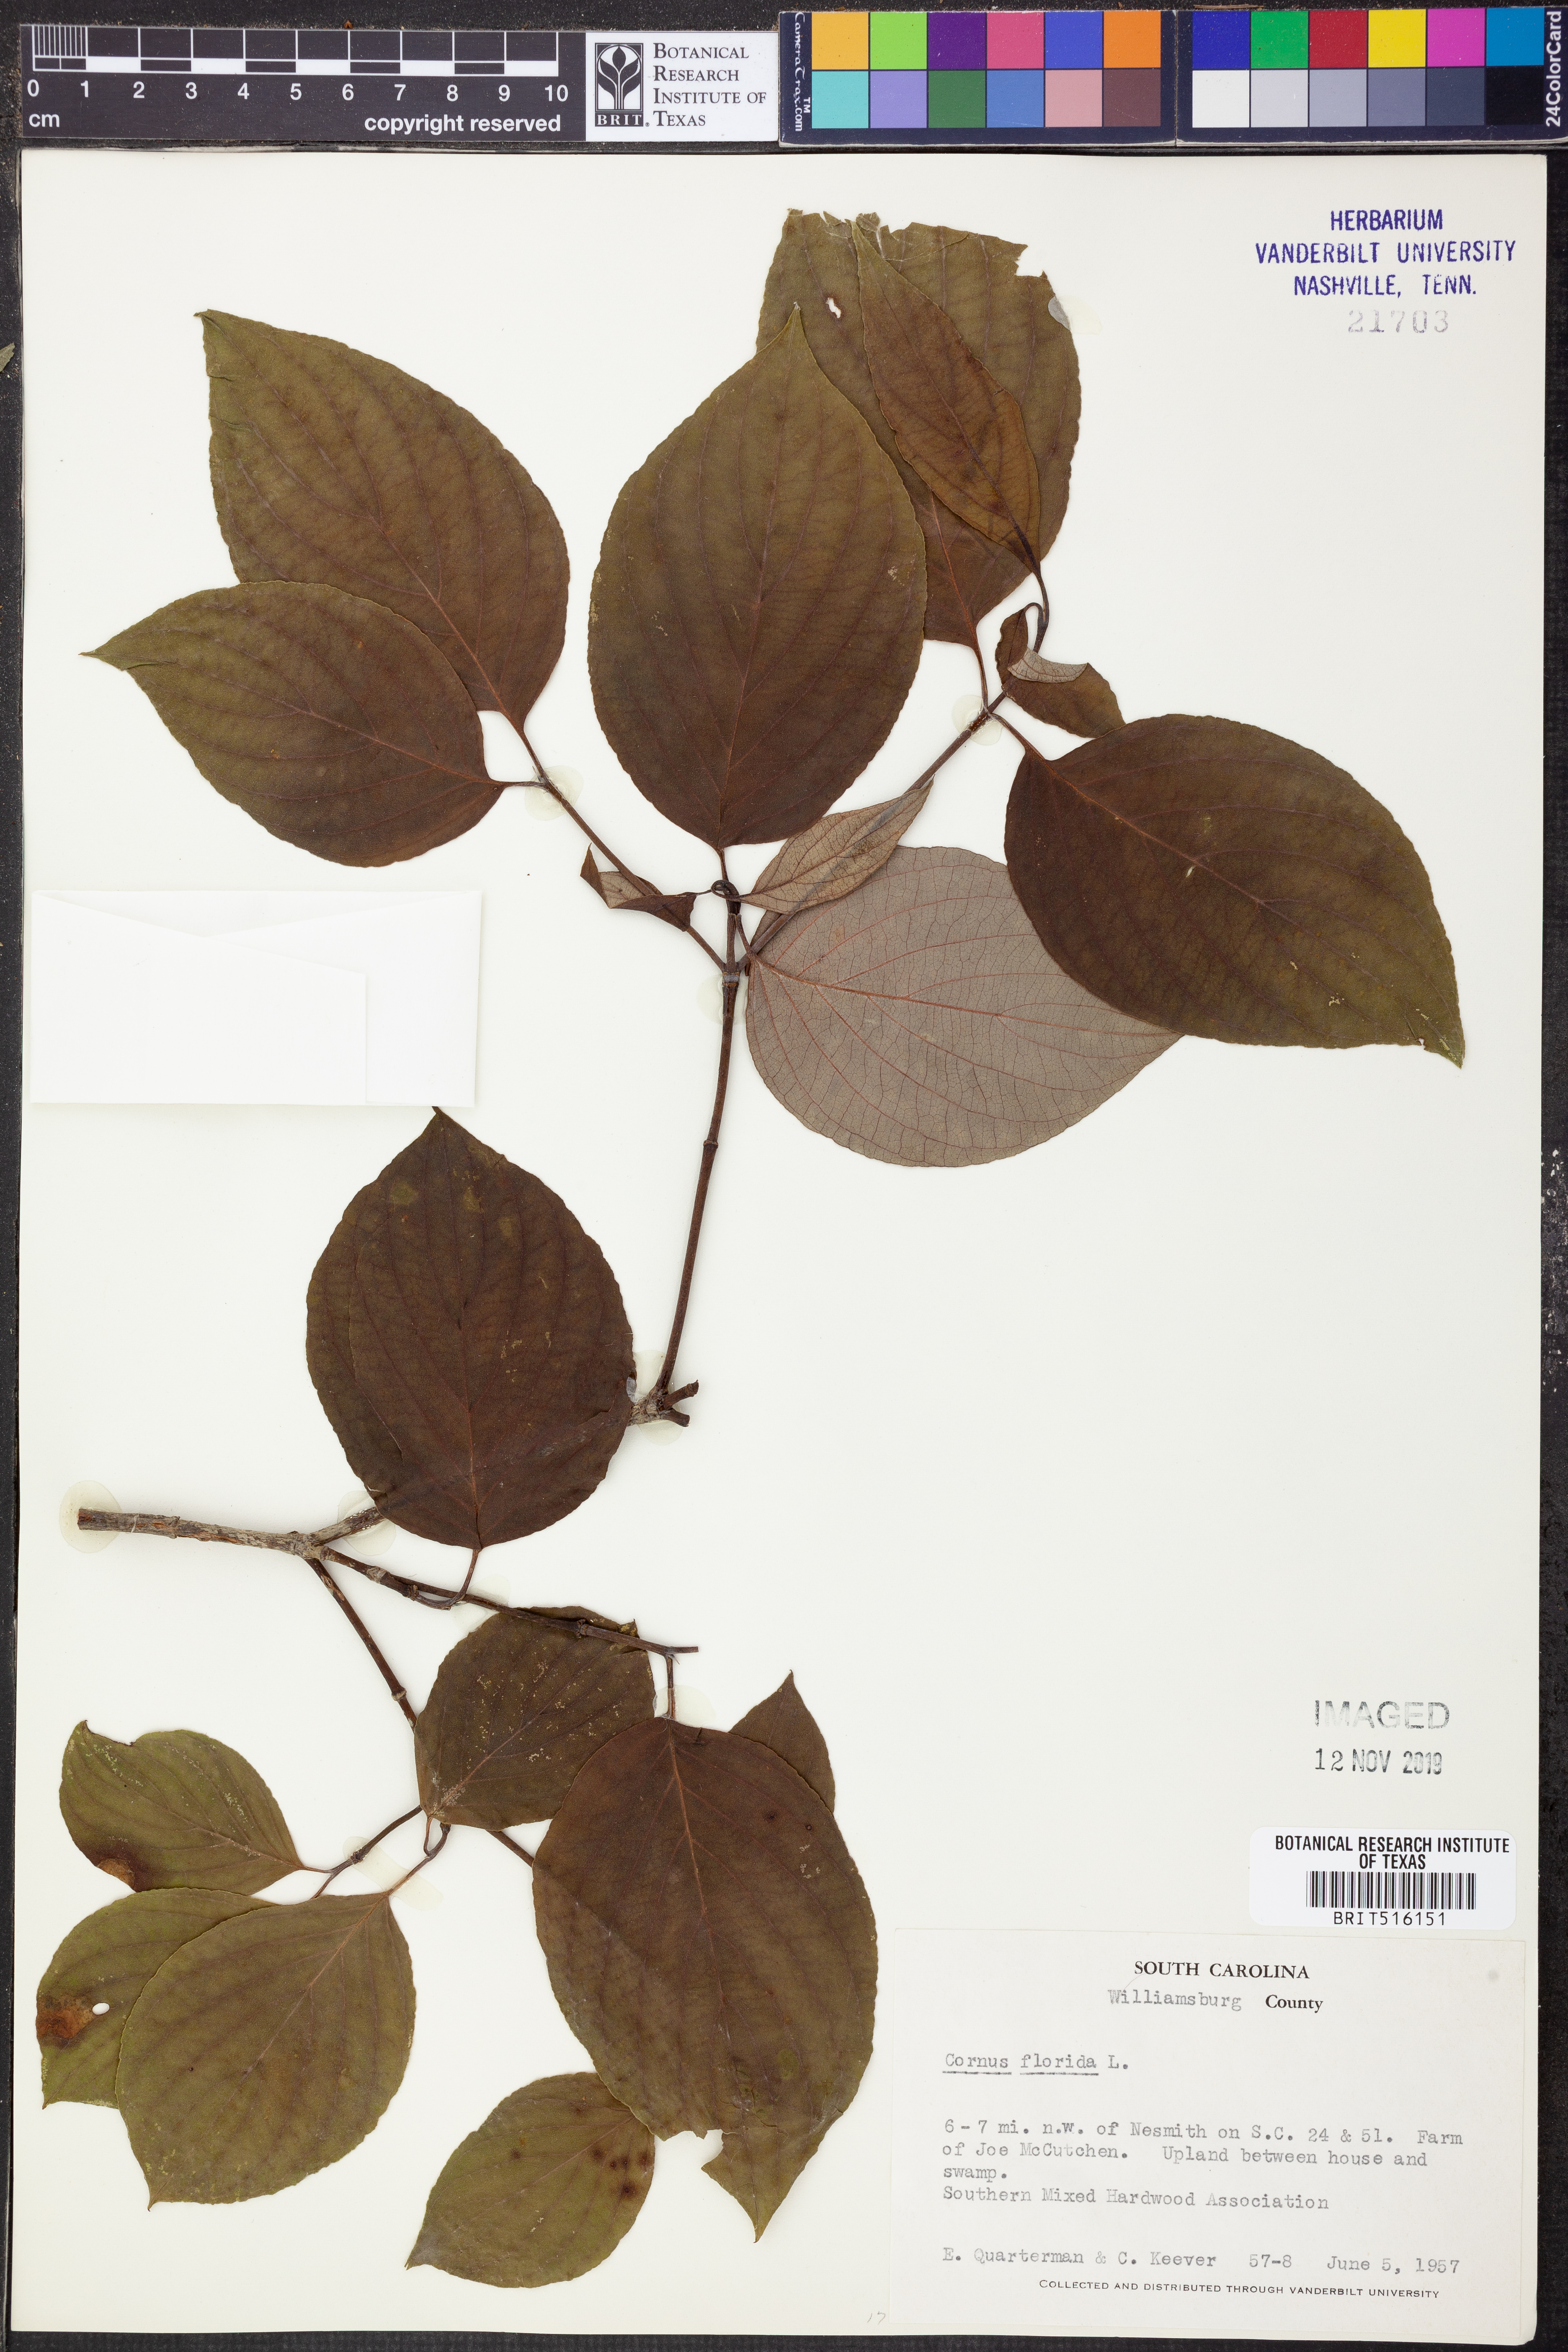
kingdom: Plantae
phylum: Tracheophyta
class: Magnoliopsida
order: Cornales
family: Cornaceae
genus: Cornus
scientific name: Cornus florida
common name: Flowering dogwood
